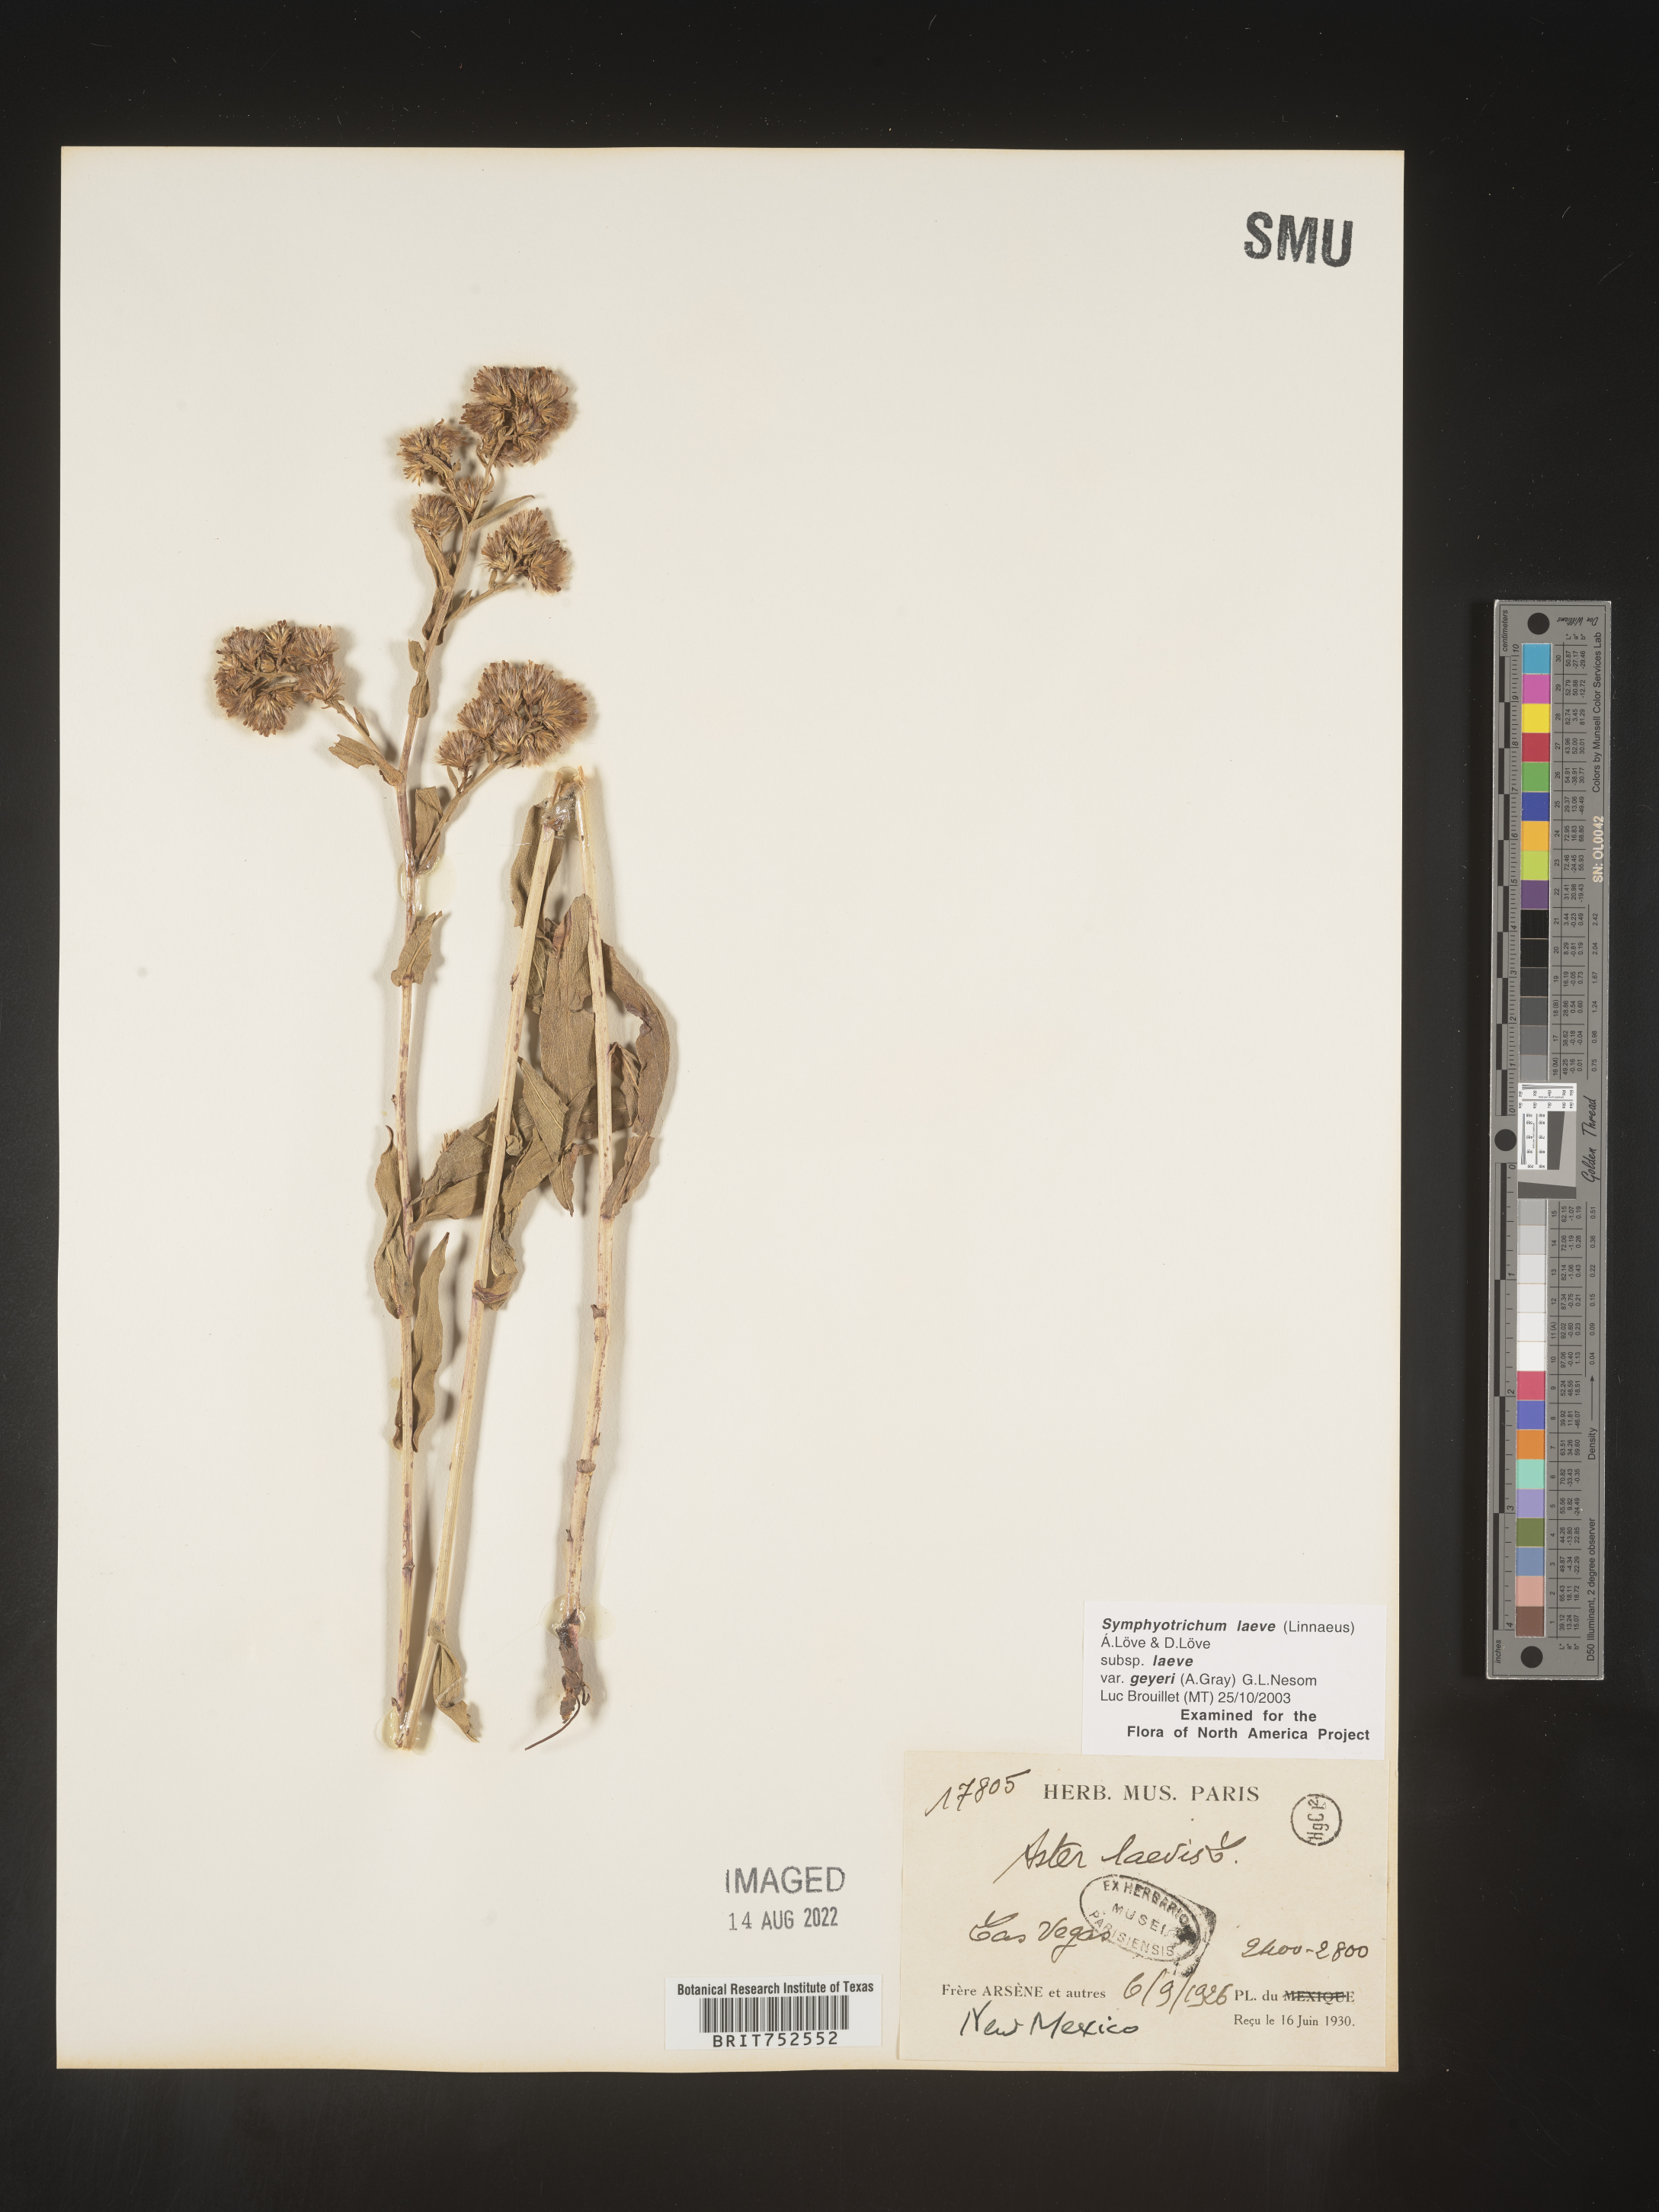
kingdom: Plantae
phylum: Tracheophyta
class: Magnoliopsida
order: Asterales
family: Asteraceae
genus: Symphyotrichum
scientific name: Symphyotrichum laeve
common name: Glaucous aster
